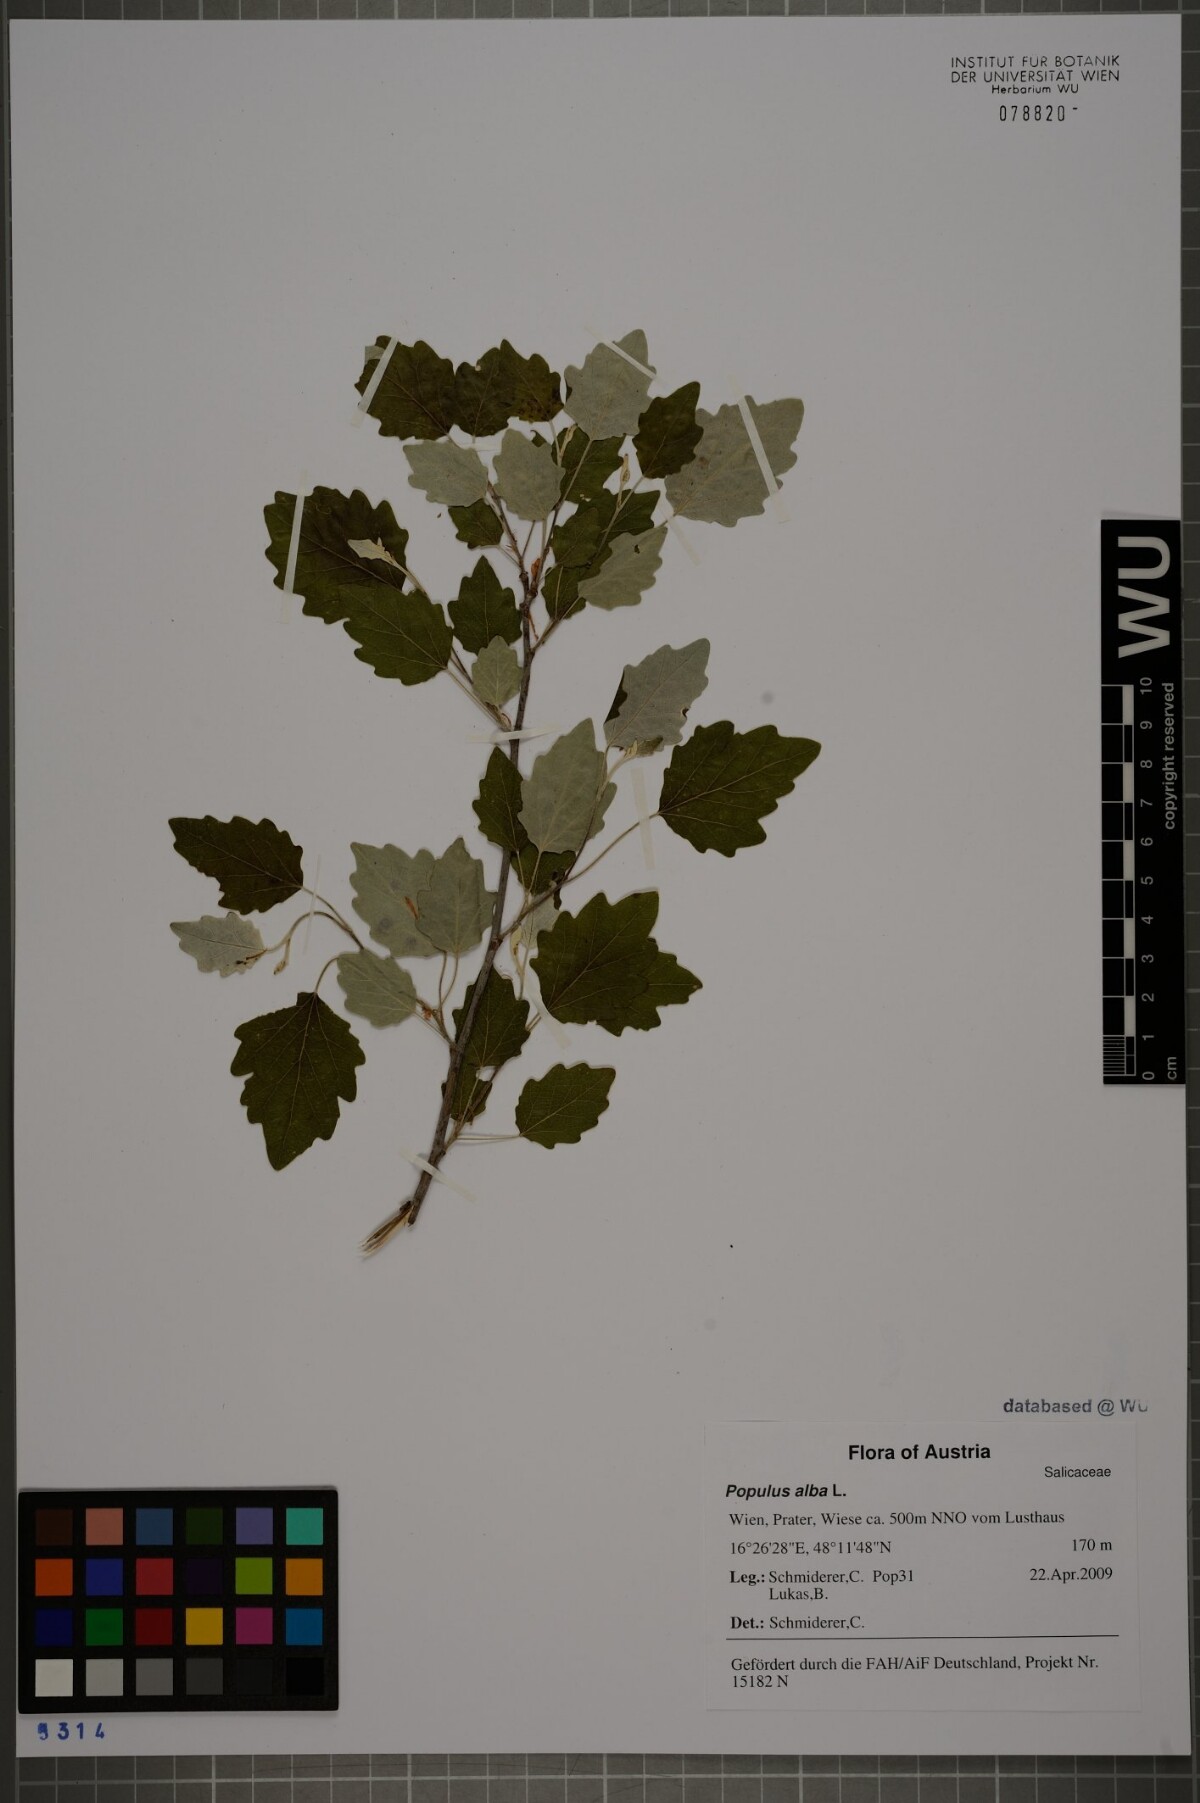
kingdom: Plantae
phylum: Tracheophyta
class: Magnoliopsida
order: Malpighiales
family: Salicaceae
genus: Populus
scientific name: Populus alba
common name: White poplar
